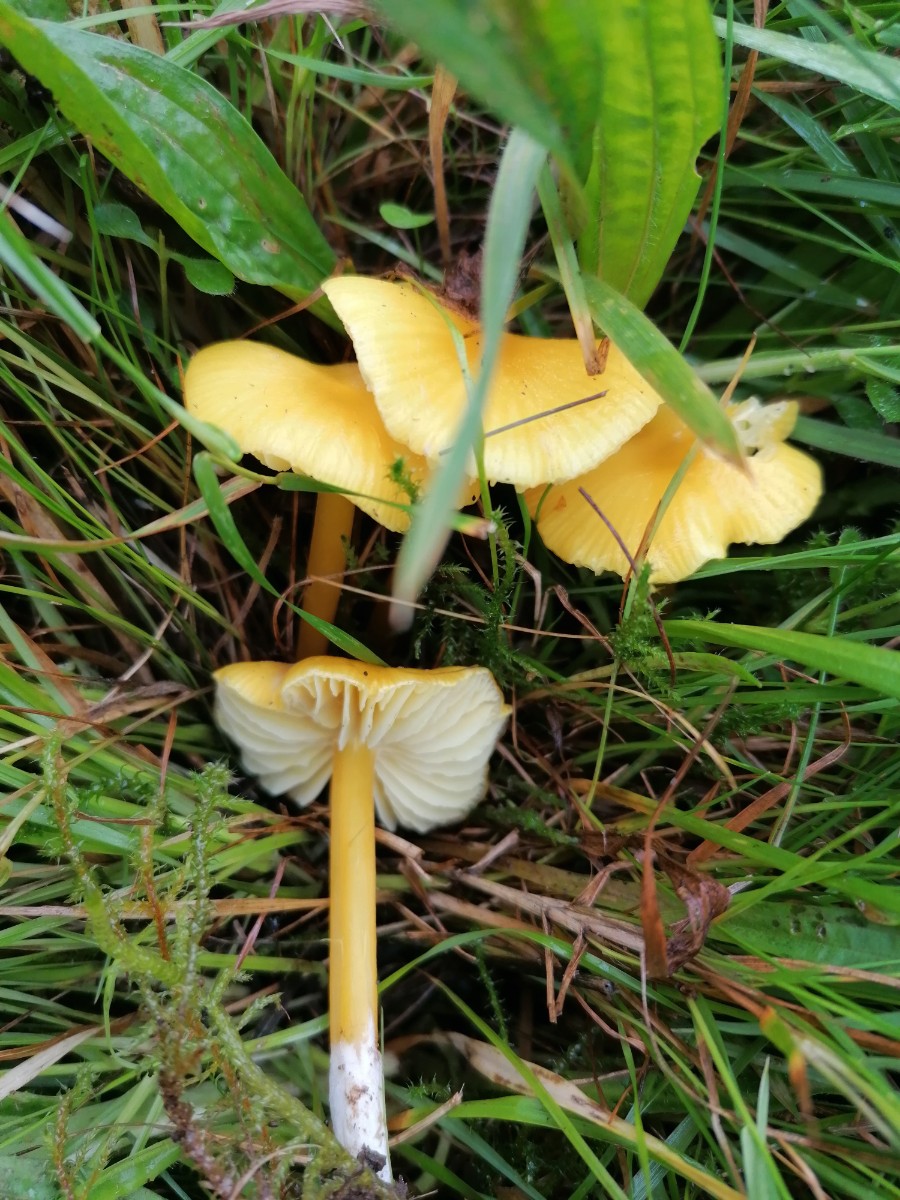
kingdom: Fungi
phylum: Basidiomycota
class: Agaricomycetes
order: Agaricales
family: Hygrophoraceae
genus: Hygrocybe
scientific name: Hygrocybe chlorophana
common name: gul vokshat
